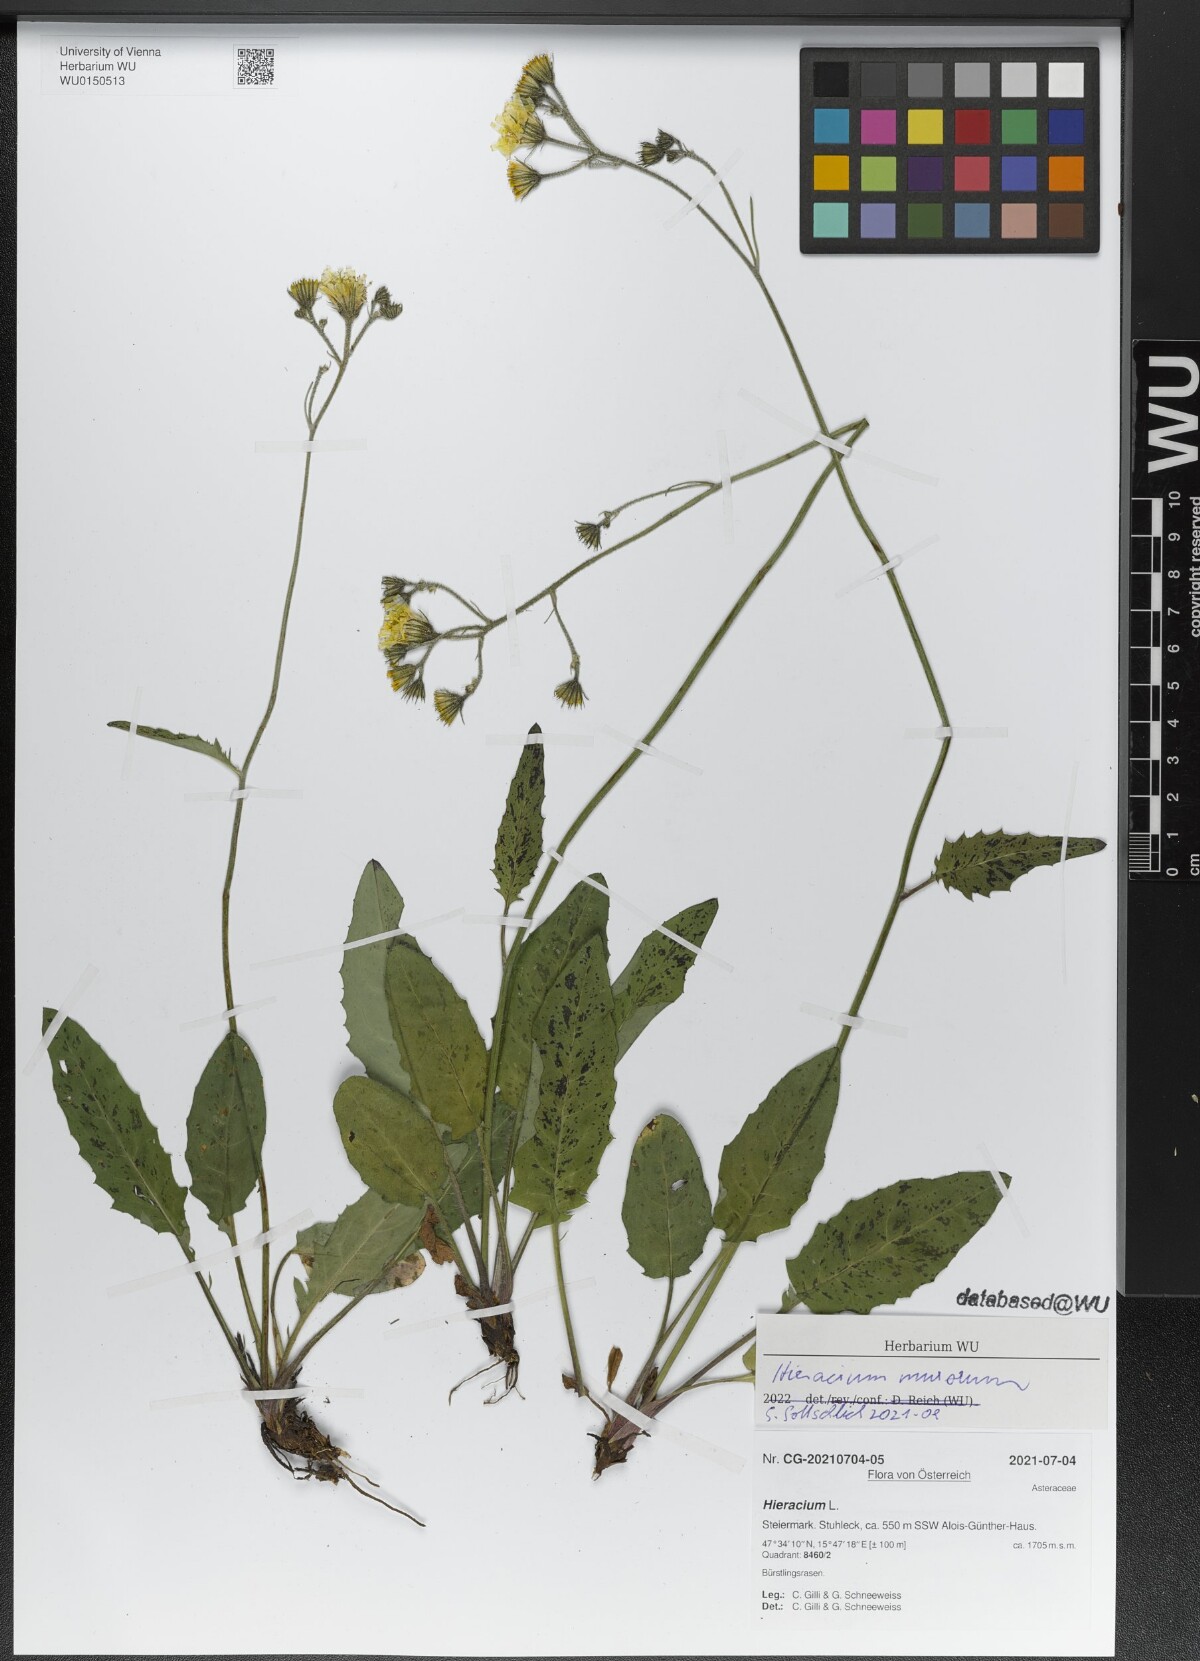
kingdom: Plantae
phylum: Tracheophyta
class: Magnoliopsida
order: Asterales
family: Asteraceae
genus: Hieracium
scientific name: Hieracium murorum
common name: Wall hawkweed
